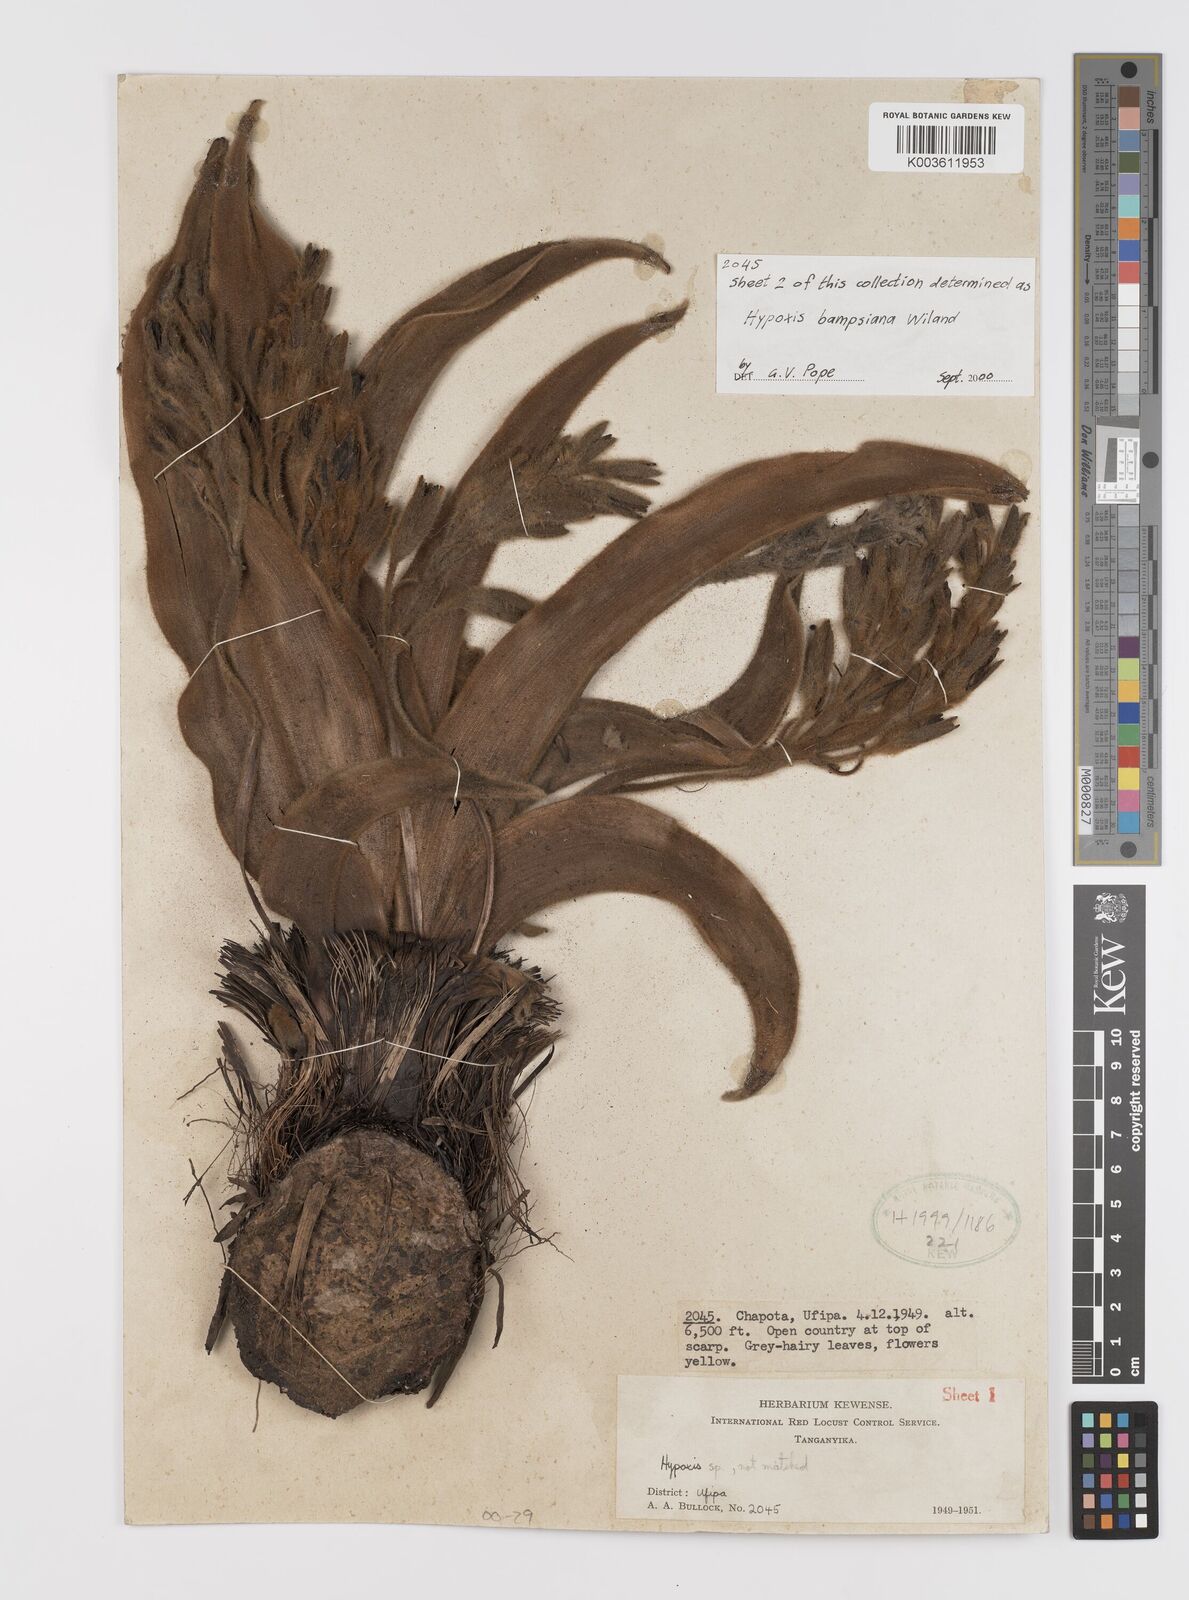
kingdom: Plantae
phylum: Tracheophyta
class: Liliopsida
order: Asparagales
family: Hypoxidaceae
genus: Hypoxis
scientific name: Hypoxis bampsiana
